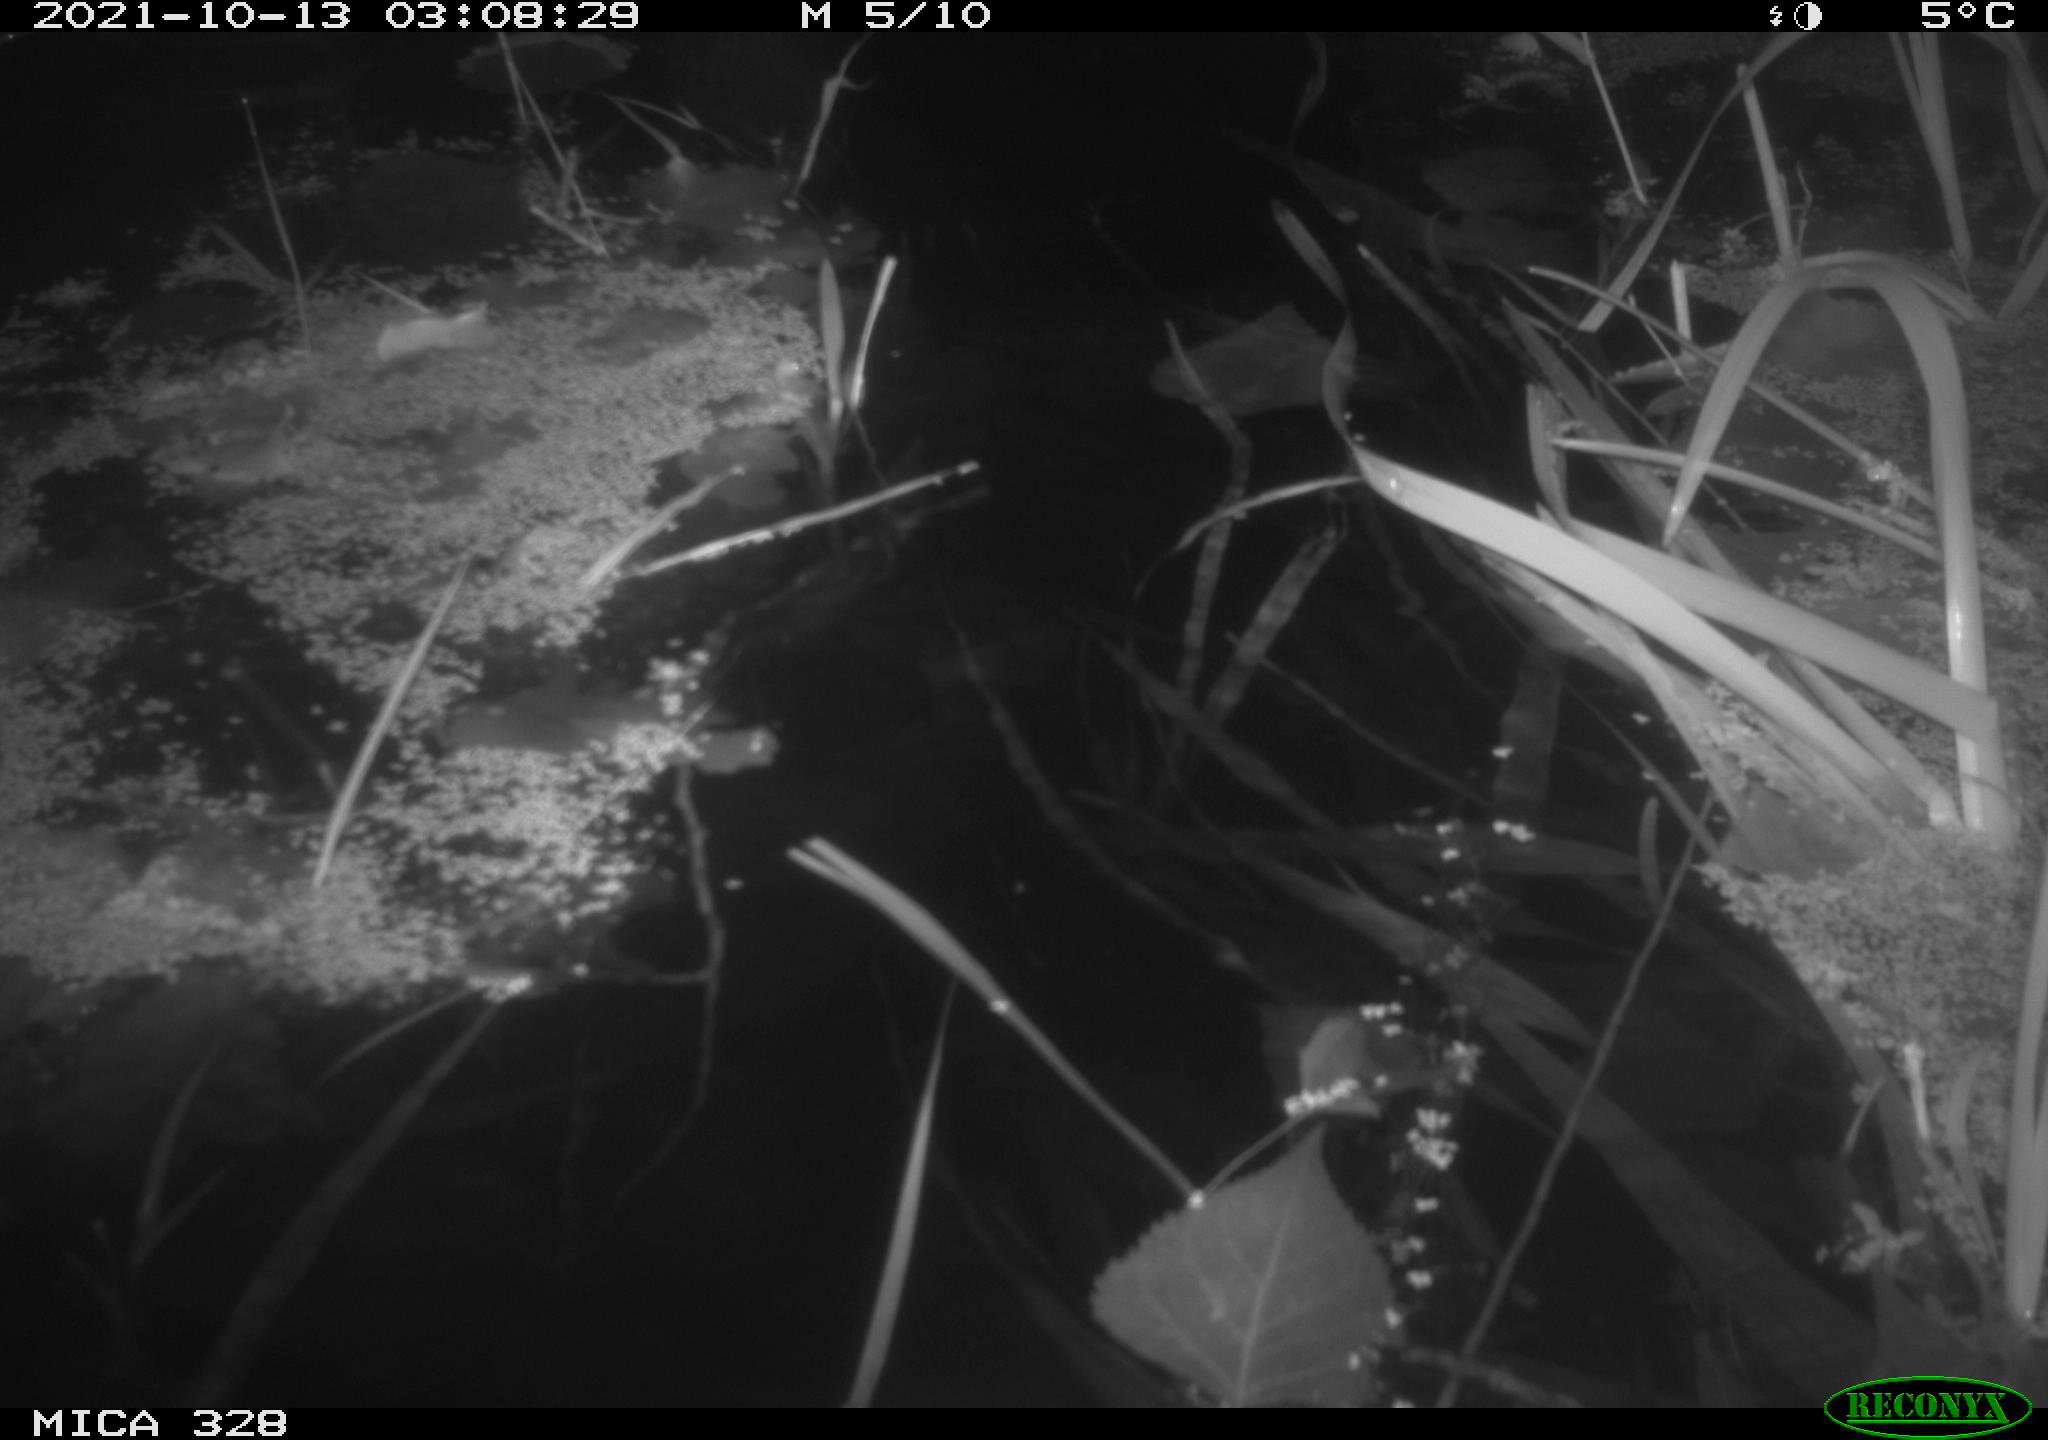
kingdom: Animalia
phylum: Chordata
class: Mammalia
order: Rodentia
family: Cricetidae
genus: Ondatra
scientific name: Ondatra zibethicus
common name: Muskrat
